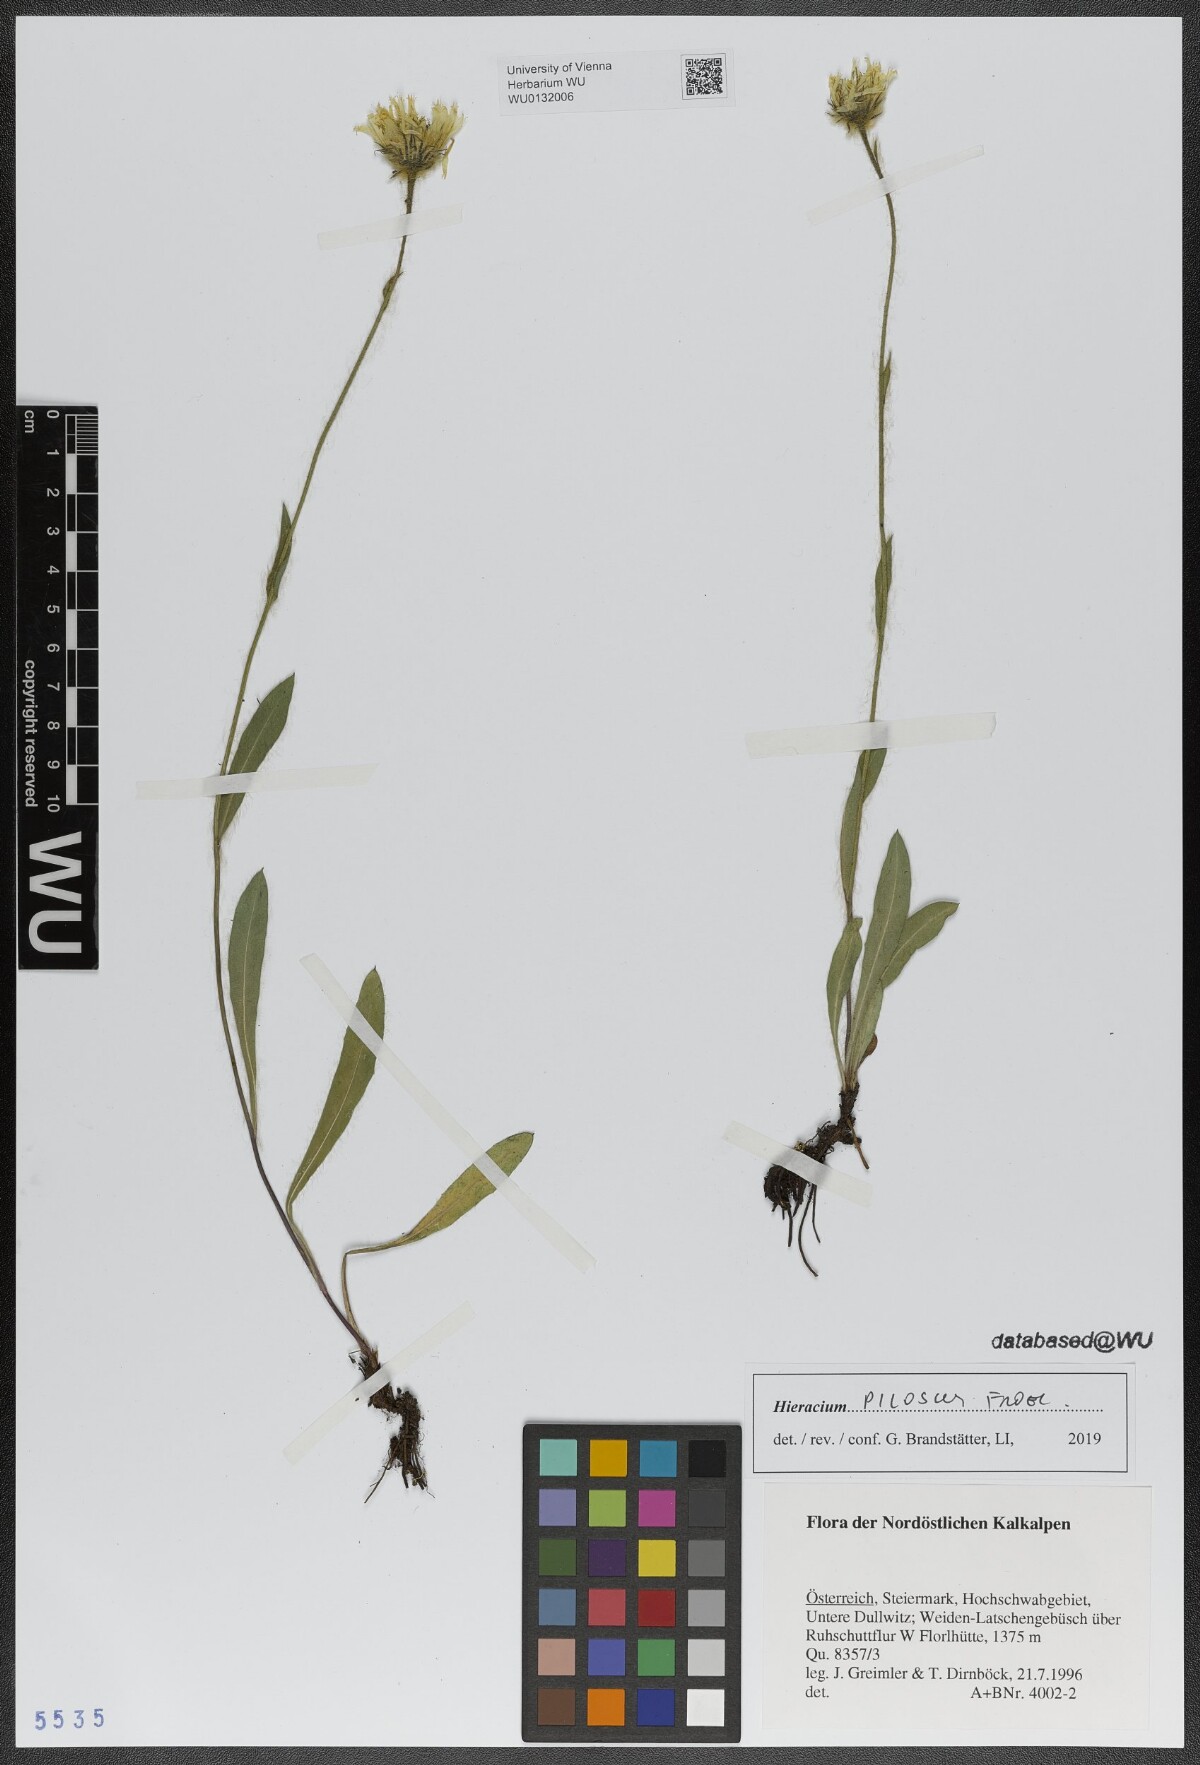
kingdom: Plantae
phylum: Tracheophyta
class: Magnoliopsida
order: Asterales
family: Asteraceae
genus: Hieracium
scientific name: Hieracium pilosum
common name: Fimbriate-pitted hawkweed
